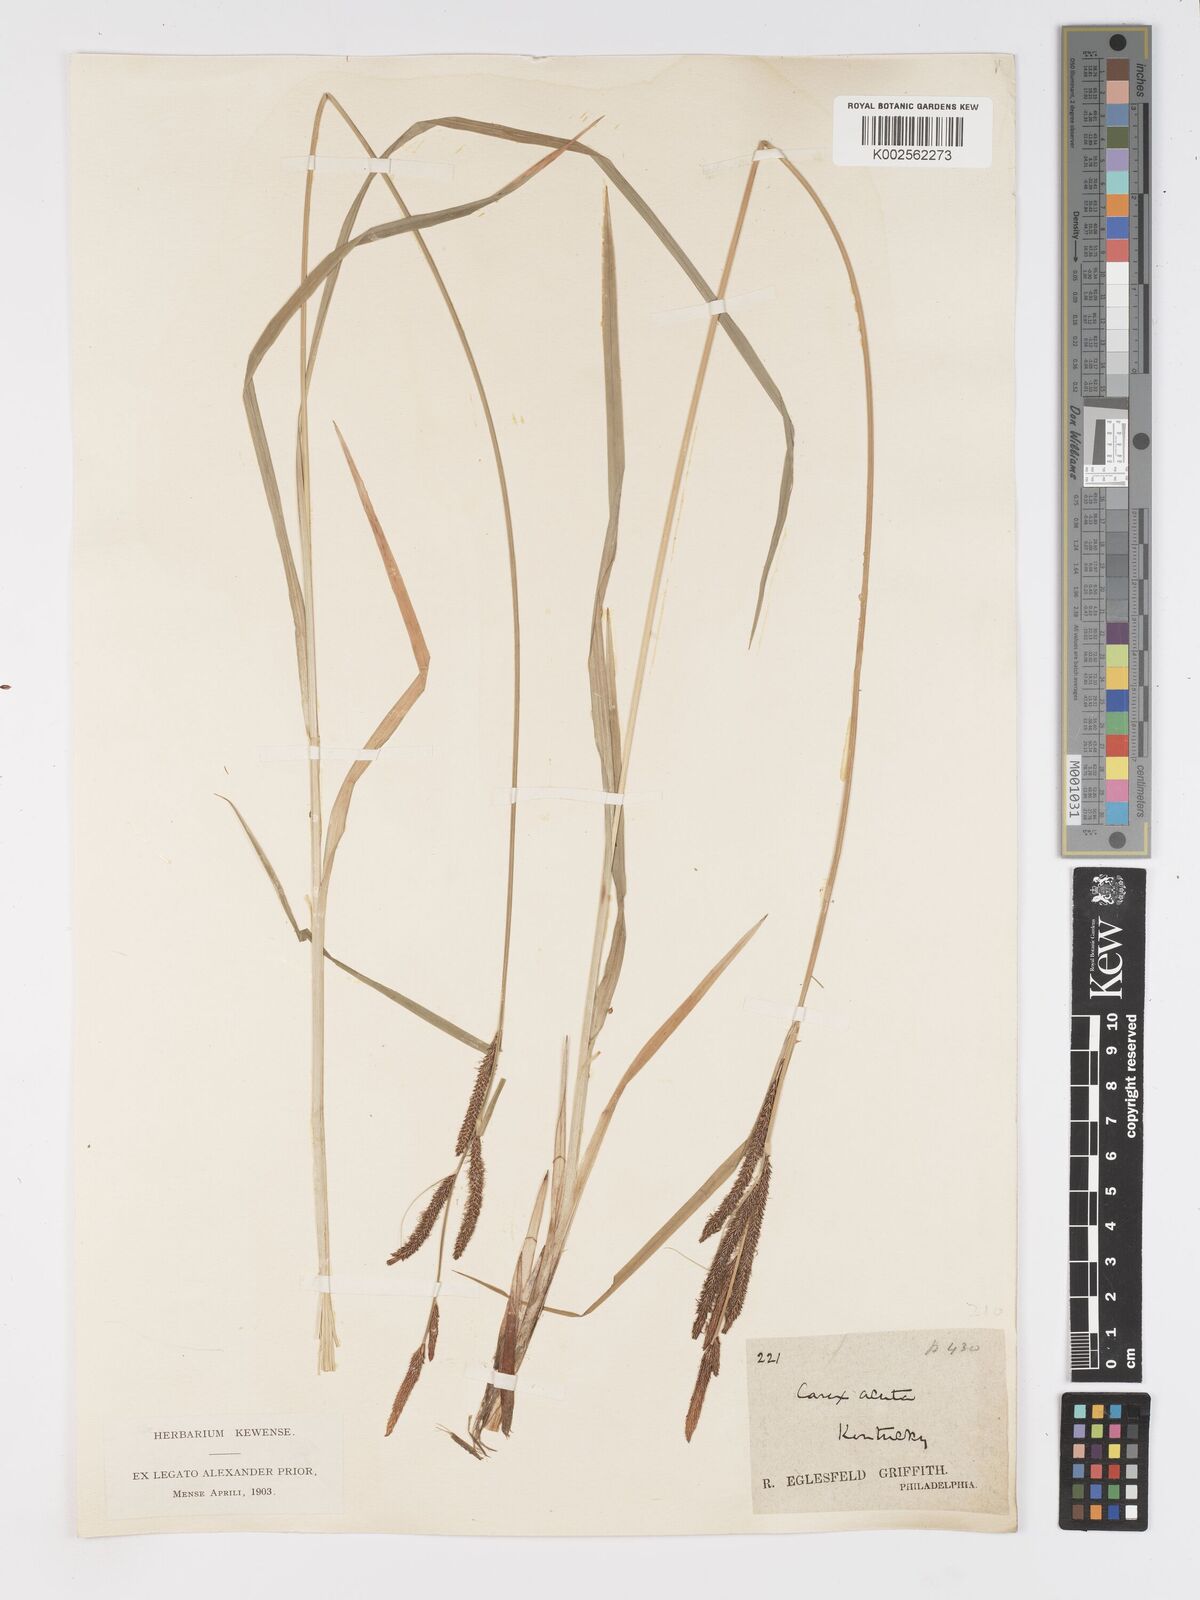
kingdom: Plantae
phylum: Tracheophyta
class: Liliopsida
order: Poales
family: Cyperaceae
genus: Carex
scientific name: Carex nebrascensis
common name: Nebraska sedge
